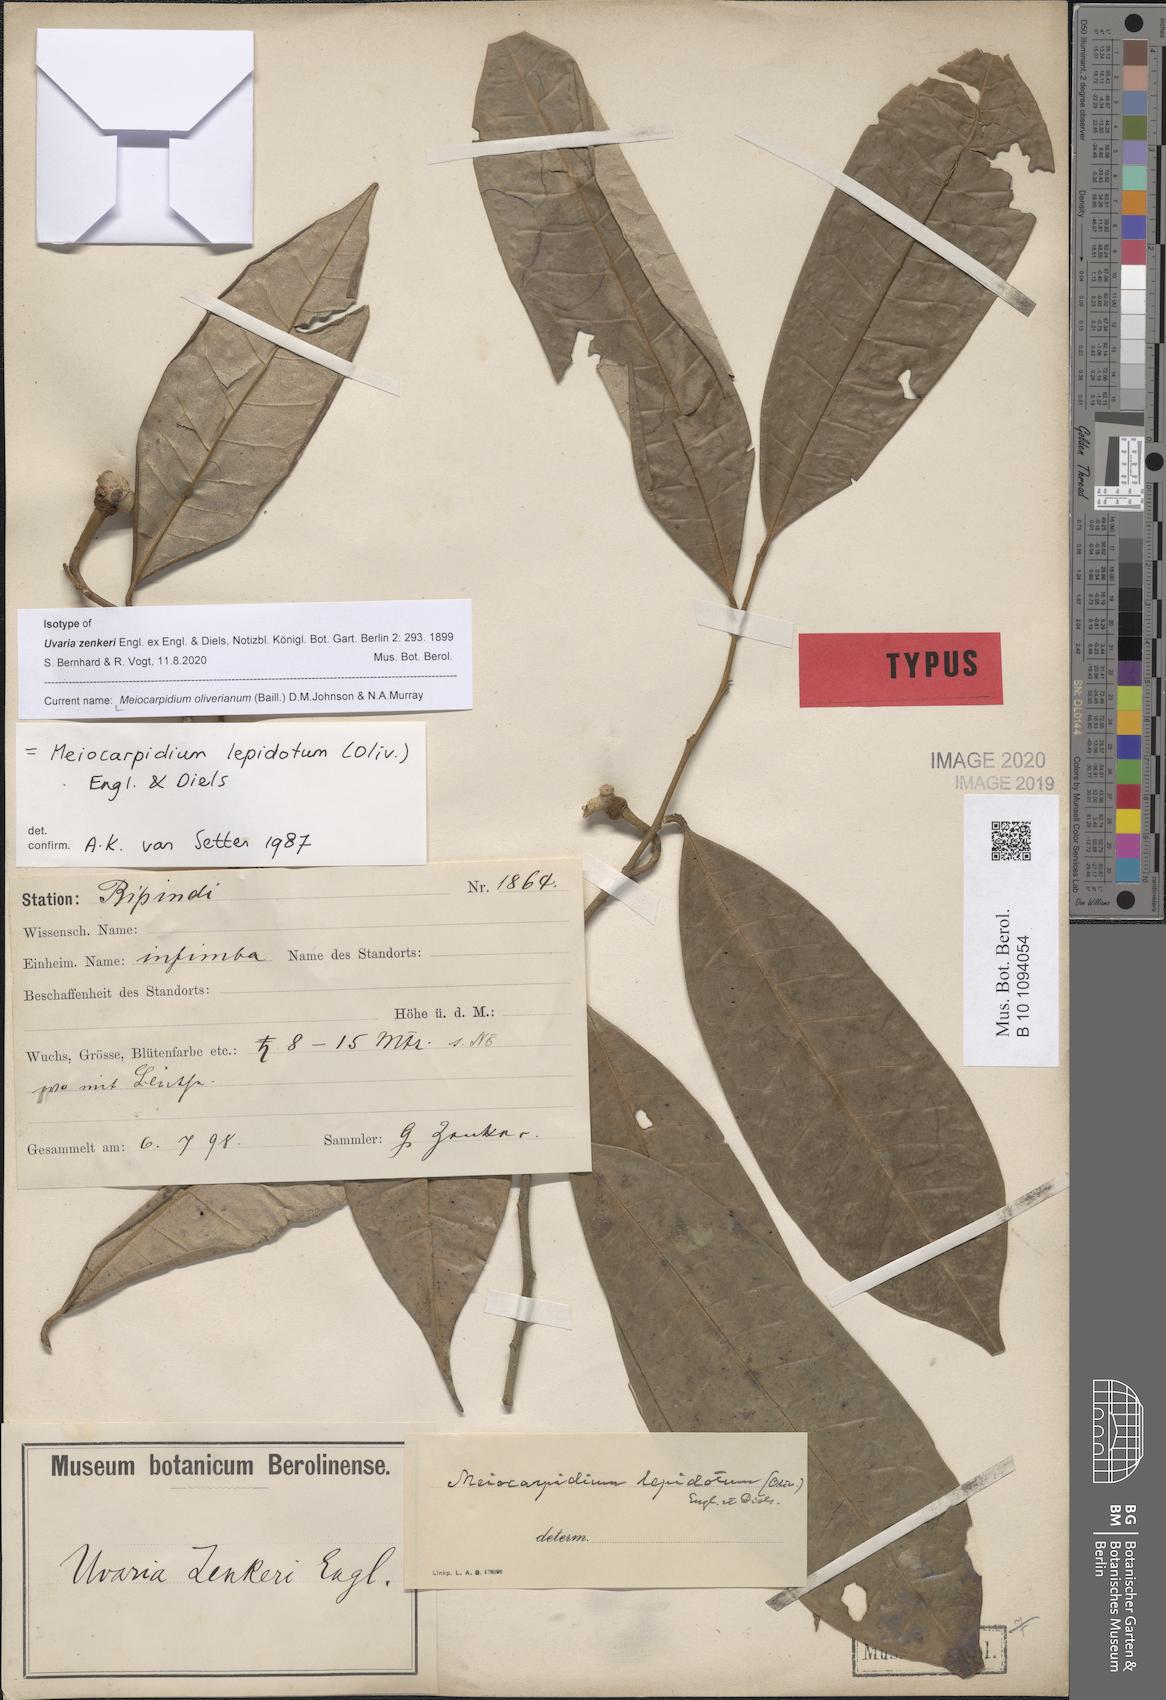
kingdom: Plantae
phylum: Tracheophyta
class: Magnoliopsida
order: Magnoliales
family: Annonaceae
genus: Asteranthe
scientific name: Asteranthe asterias
